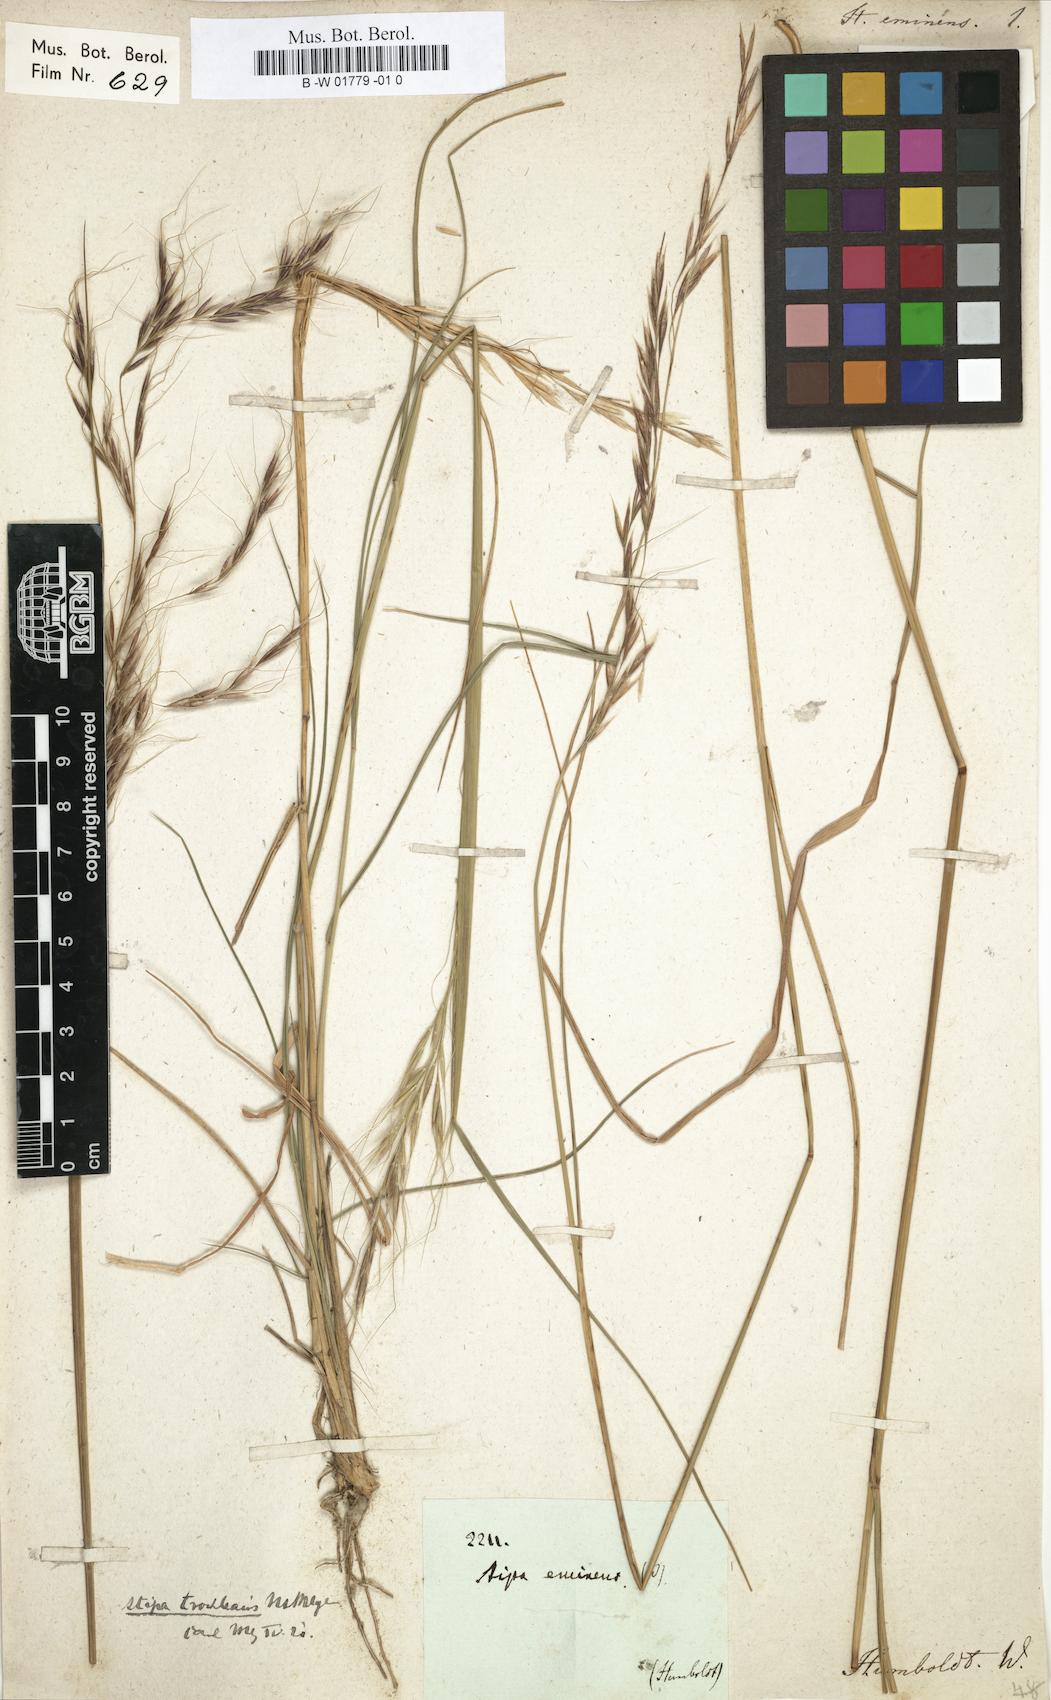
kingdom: Plantae
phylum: Tracheophyta
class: Liliopsida
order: Poales
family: Poaceae
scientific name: Poaceae
